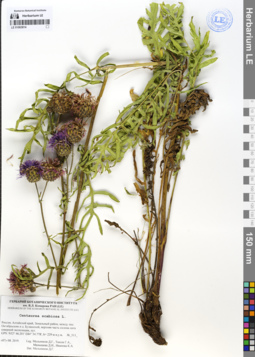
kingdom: Plantae
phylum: Tracheophyta
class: Magnoliopsida
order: Asterales
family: Asteraceae
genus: Centaurea
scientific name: Centaurea scabiosa
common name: Greater knapweed
